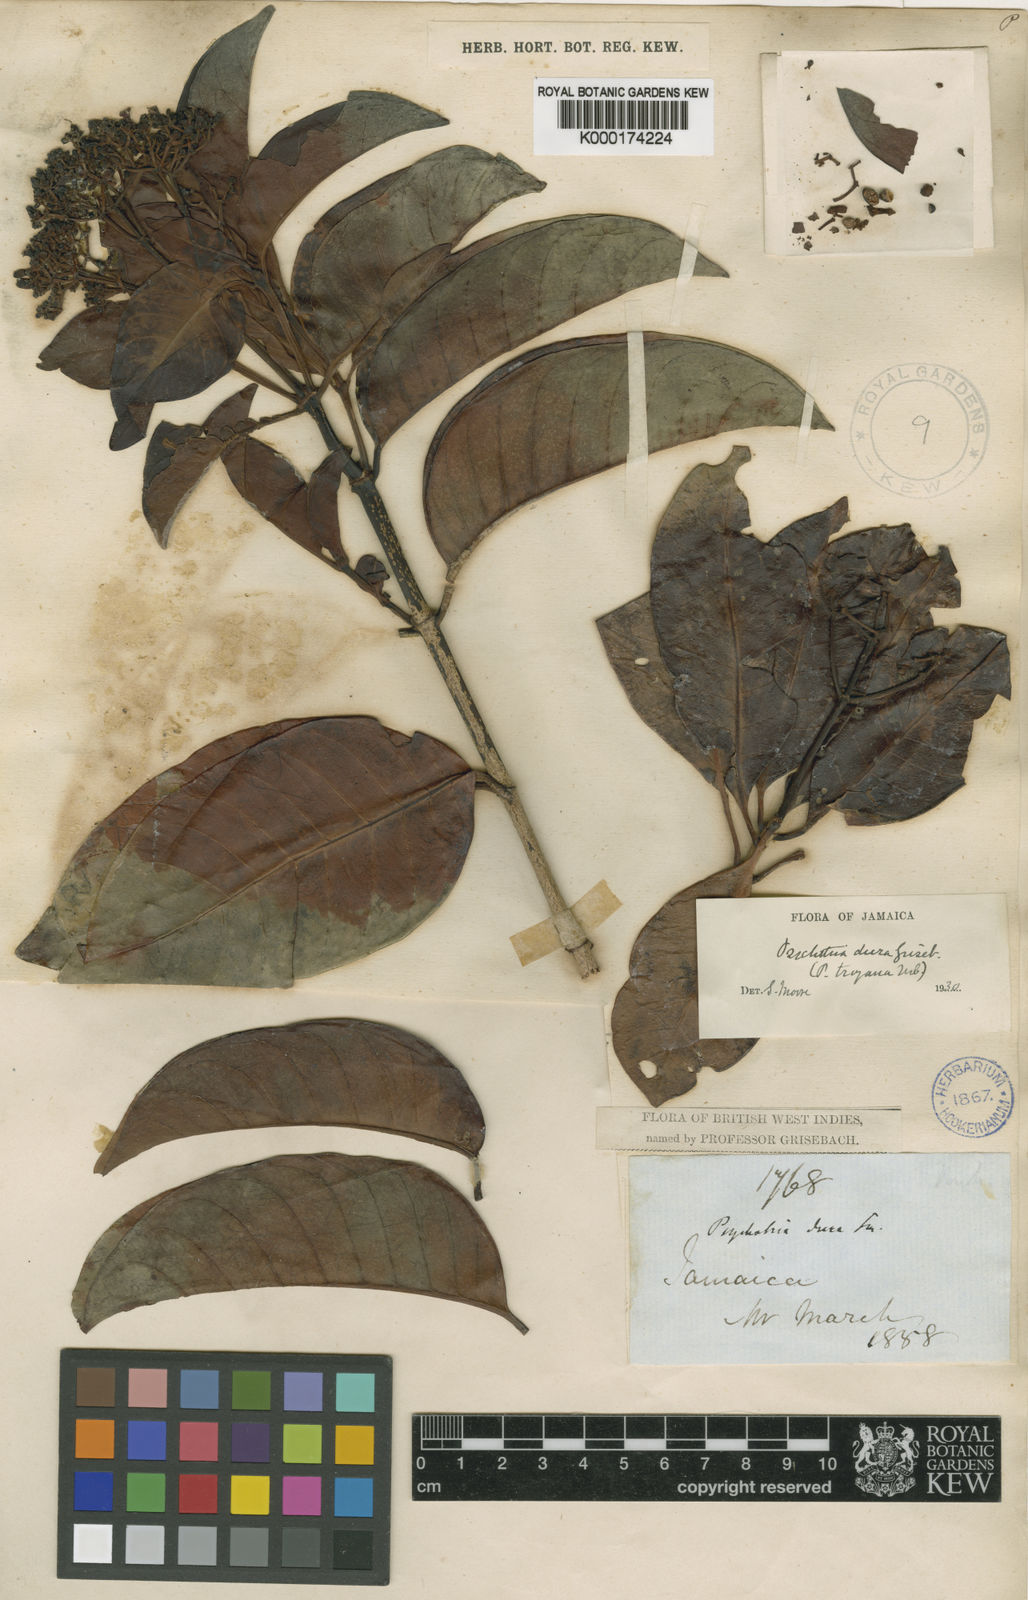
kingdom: Plantae
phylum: Tracheophyta
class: Magnoliopsida
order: Gentianales
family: Rubiaceae
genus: Psychotria
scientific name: Psychotria dura
